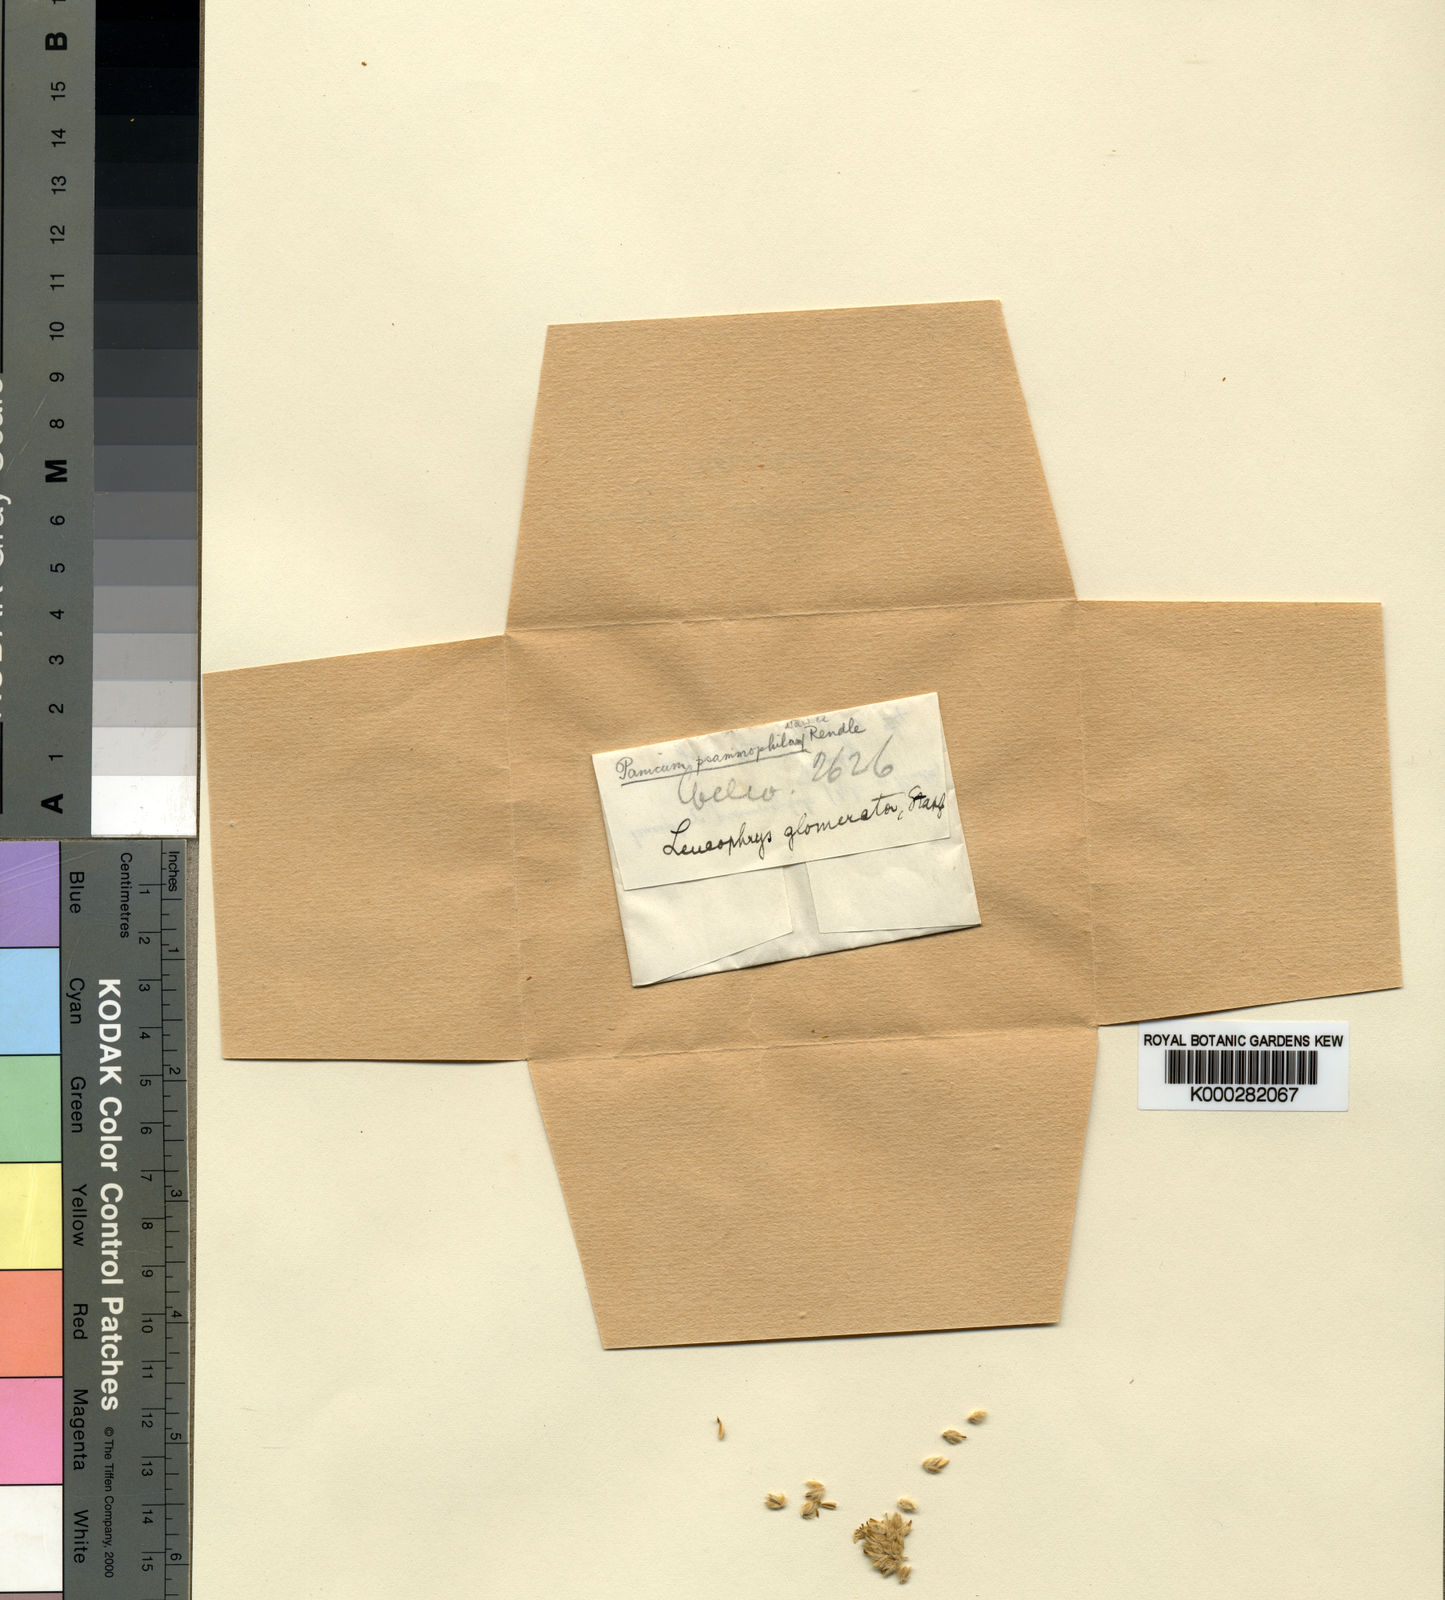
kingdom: Plantae
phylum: Tracheophyta
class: Liliopsida
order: Poales
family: Poaceae
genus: Urochloa
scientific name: Urochloa Brachiaria psammophila
